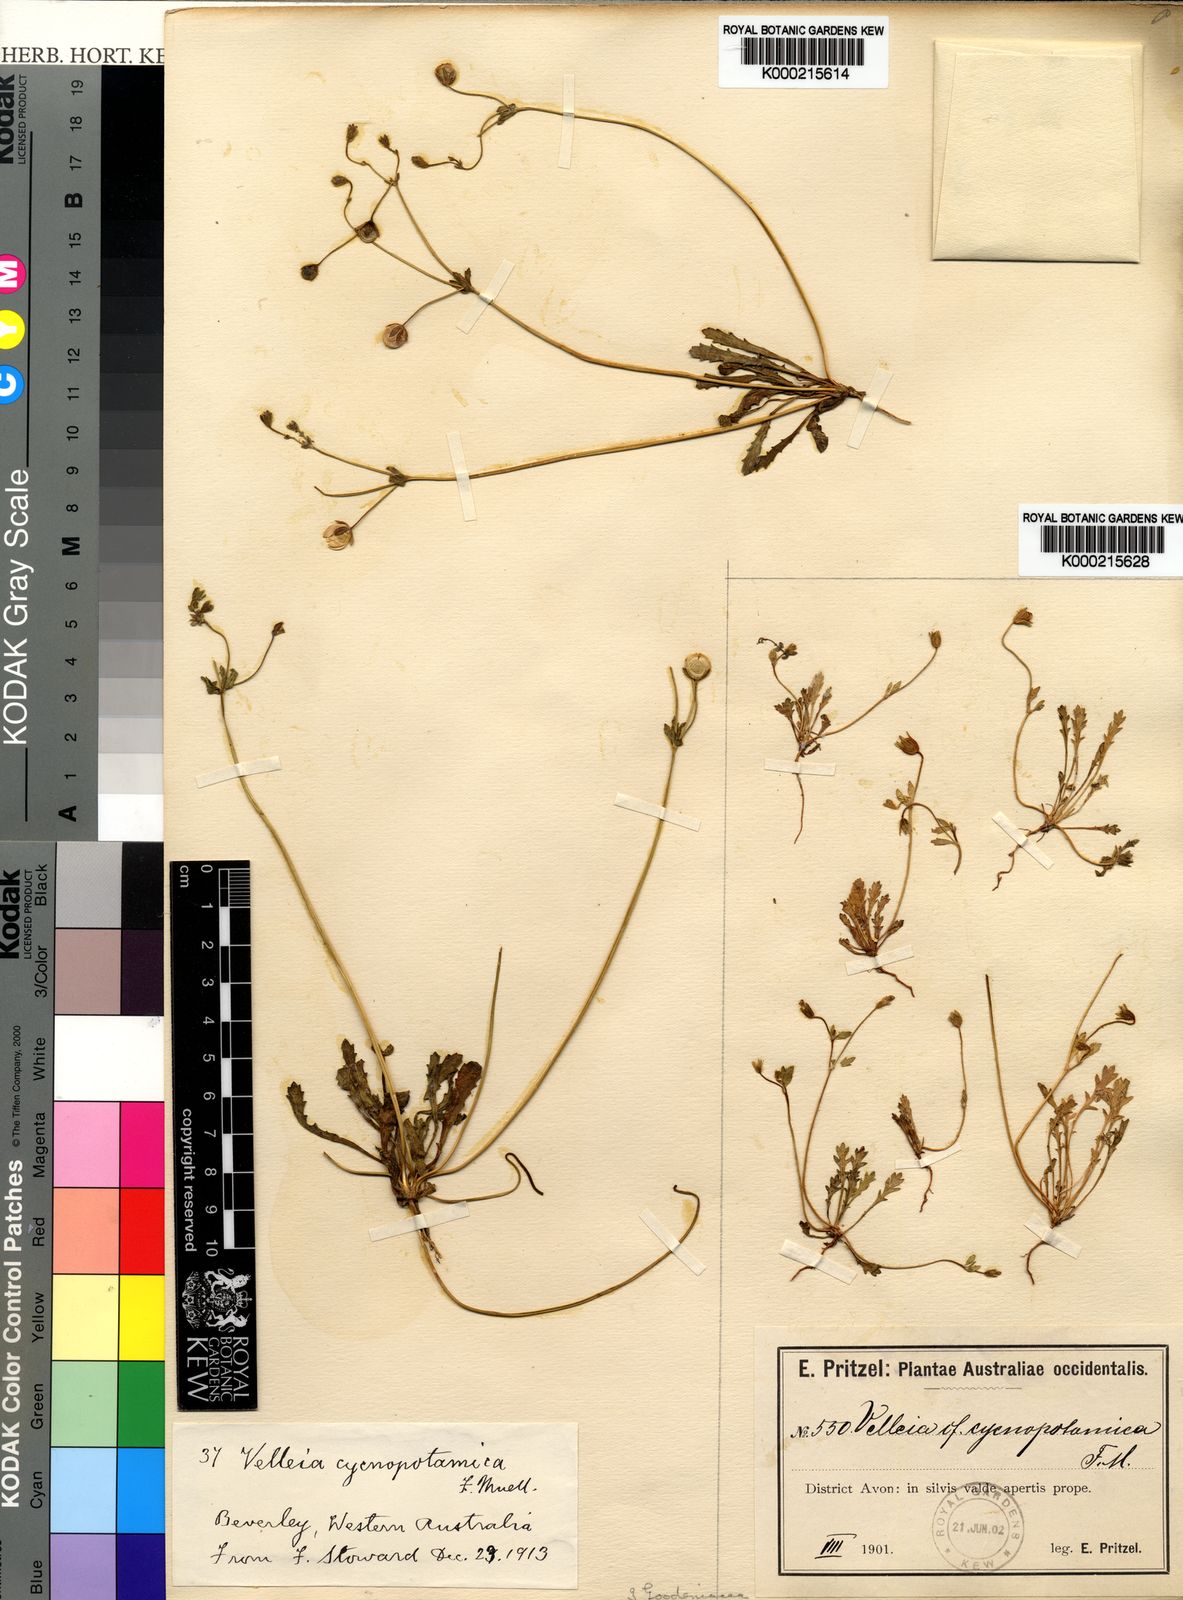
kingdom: Plantae
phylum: Tracheophyta
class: Magnoliopsida
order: Asterales
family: Goodeniaceae
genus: Goodenia
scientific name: Goodenia cycnopotamica
